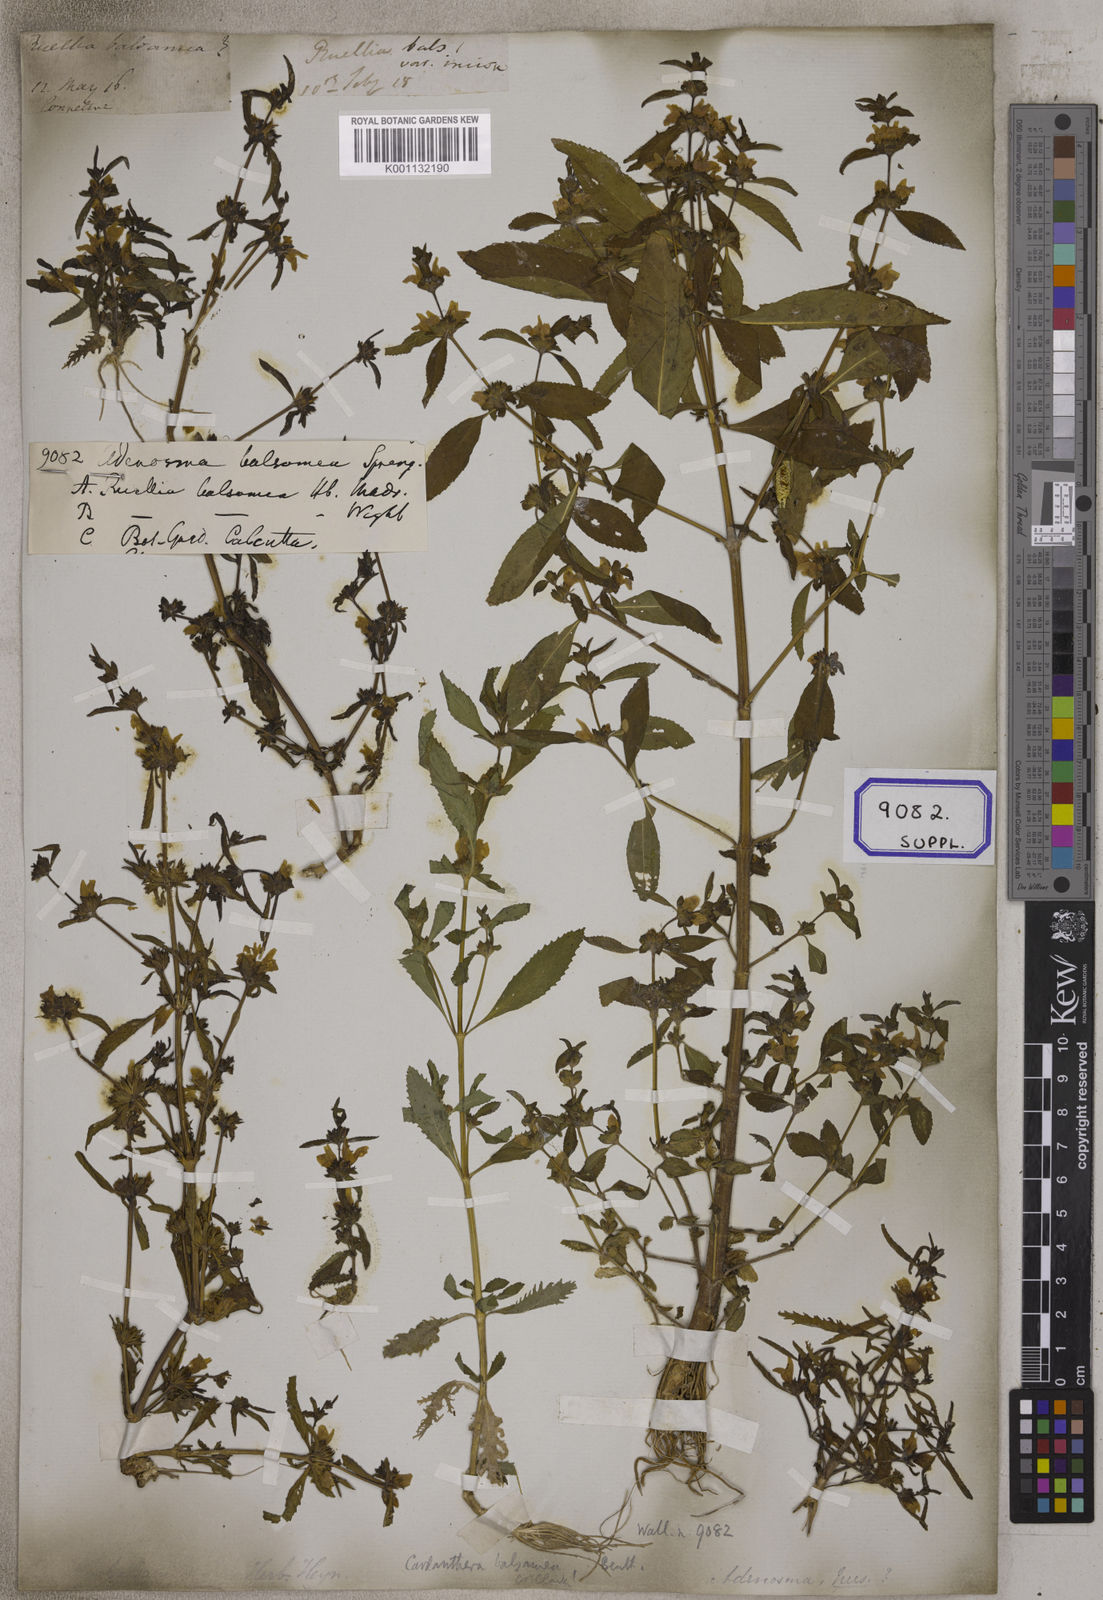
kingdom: Plantae
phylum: Tracheophyta
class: Magnoliopsida
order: Lamiales
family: Acanthaceae
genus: Hygrophila
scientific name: Hygrophila balsamica
